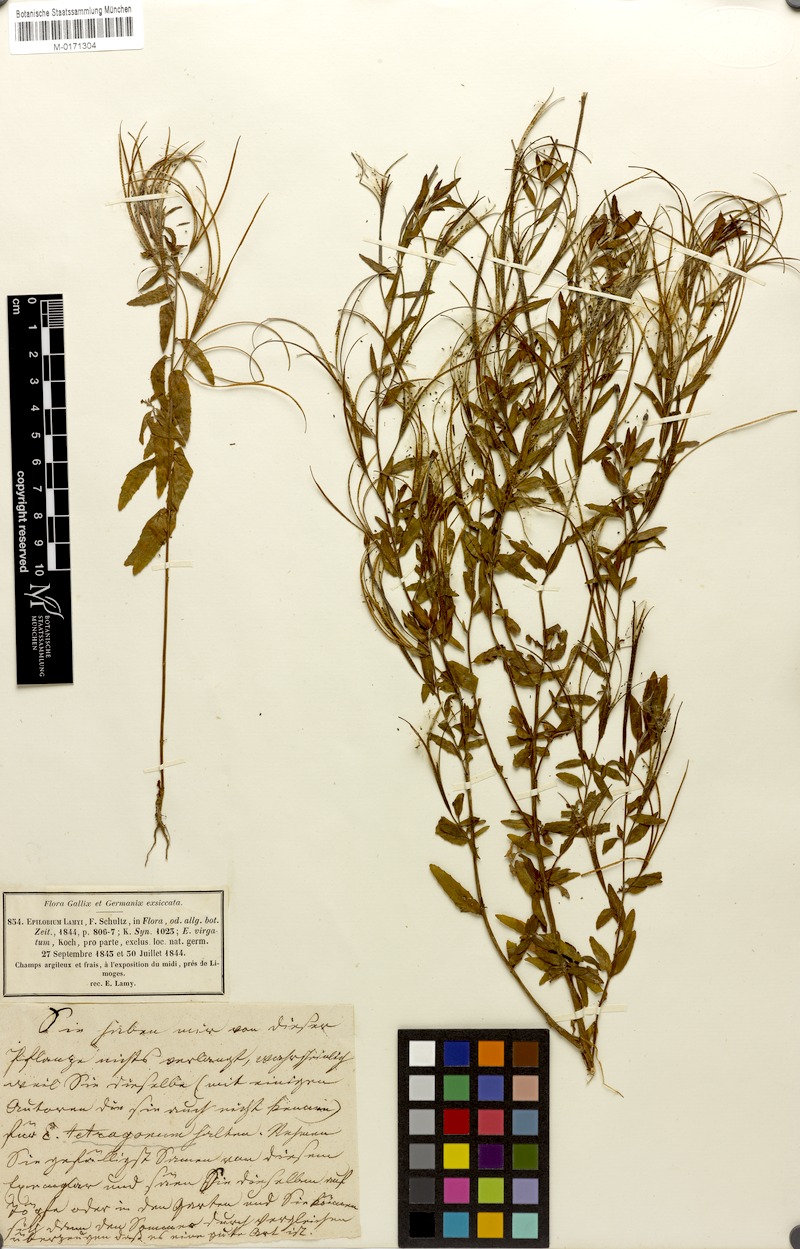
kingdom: Plantae
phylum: Tracheophyta
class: Magnoliopsida
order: Myrtales
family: Onagraceae
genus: Epilobium
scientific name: Epilobium lamyi
